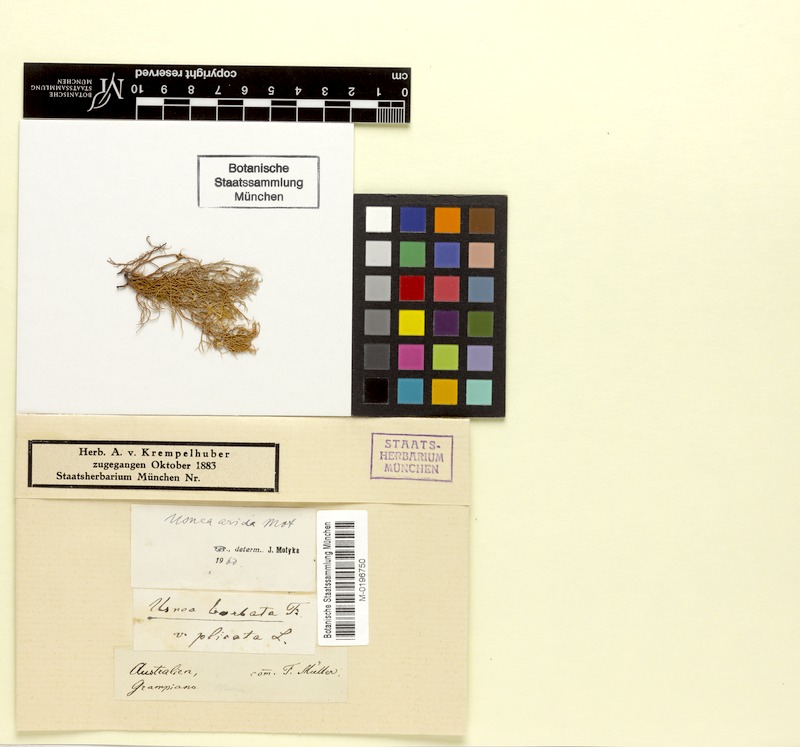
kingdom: Fungi
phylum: Ascomycota
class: Lecanoromycetes
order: Lecanorales
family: Parmeliaceae
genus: Usnea
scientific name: Usnea rubrotincta
